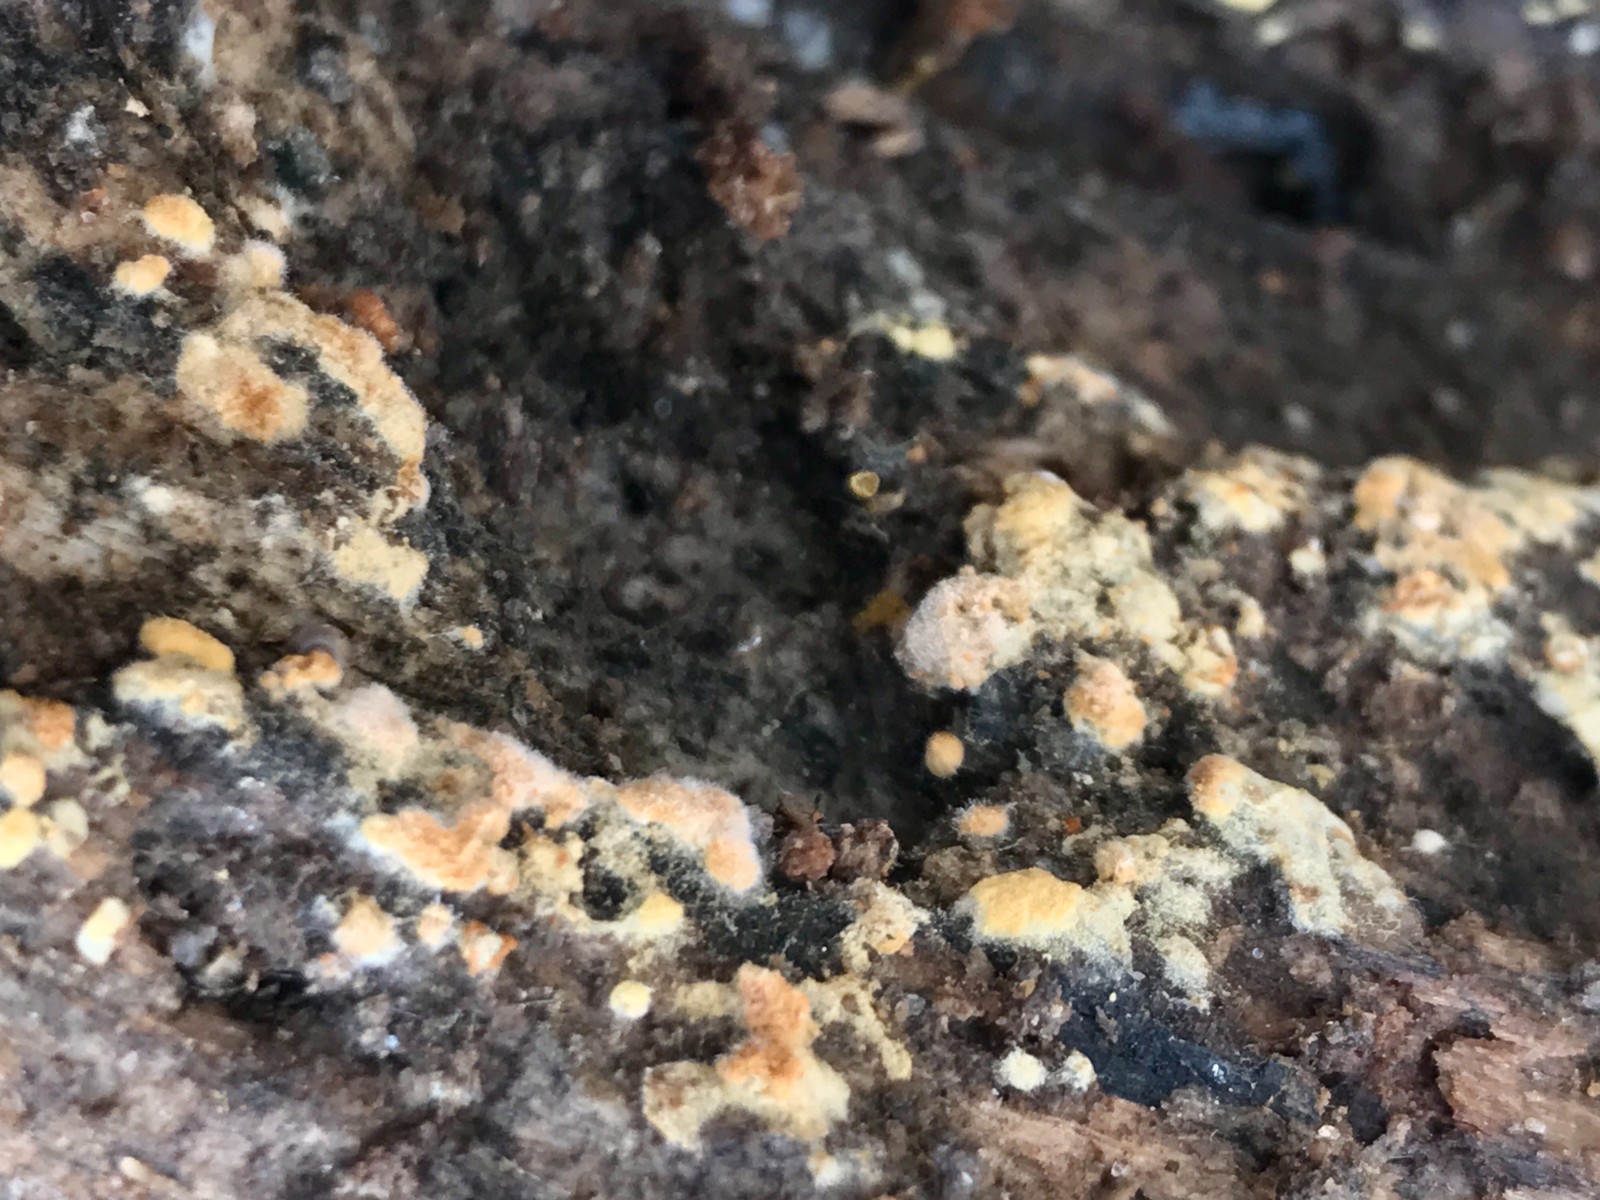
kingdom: Fungi
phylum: Basidiomycota
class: Agaricomycetes
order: Cantharellales
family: Botryobasidiaceae
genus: Botryobasidium
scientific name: Botryobasidium aureum
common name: gylden spindhinde
